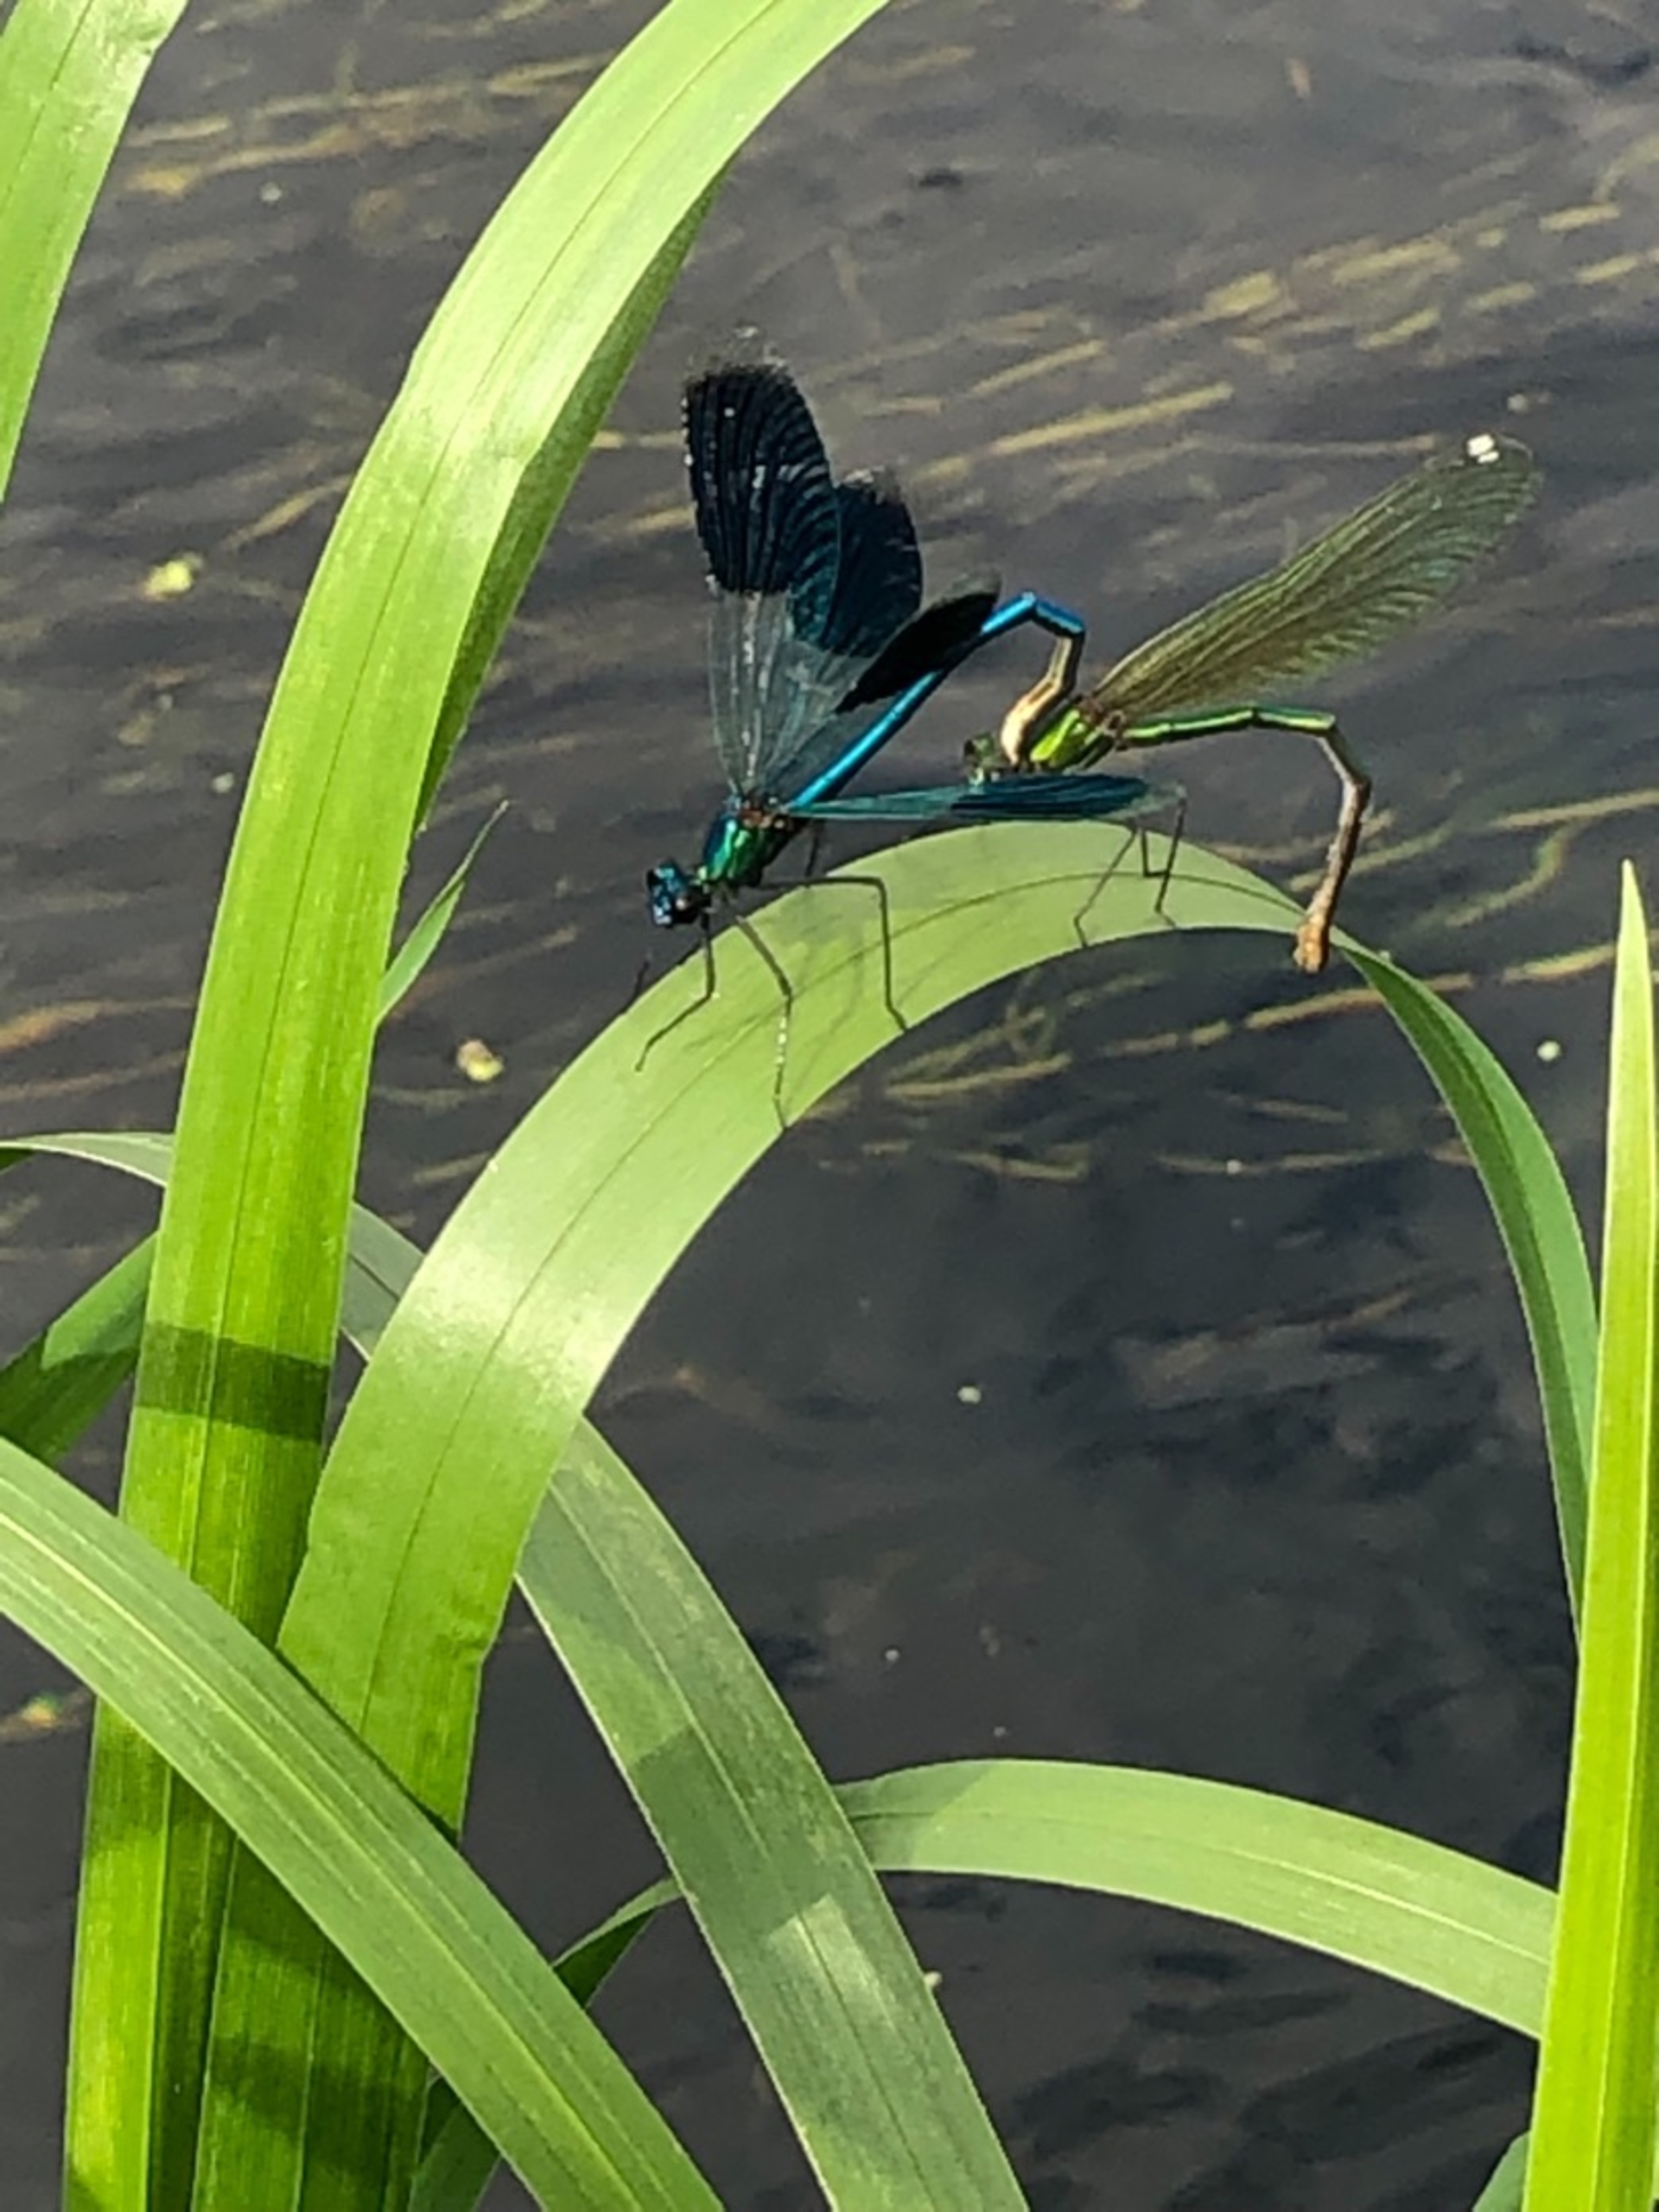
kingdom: Animalia
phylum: Arthropoda
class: Insecta
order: Odonata
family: Calopterygidae
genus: Calopteryx
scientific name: Calopteryx splendens
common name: Blåbåndet pragtvandnymfe
